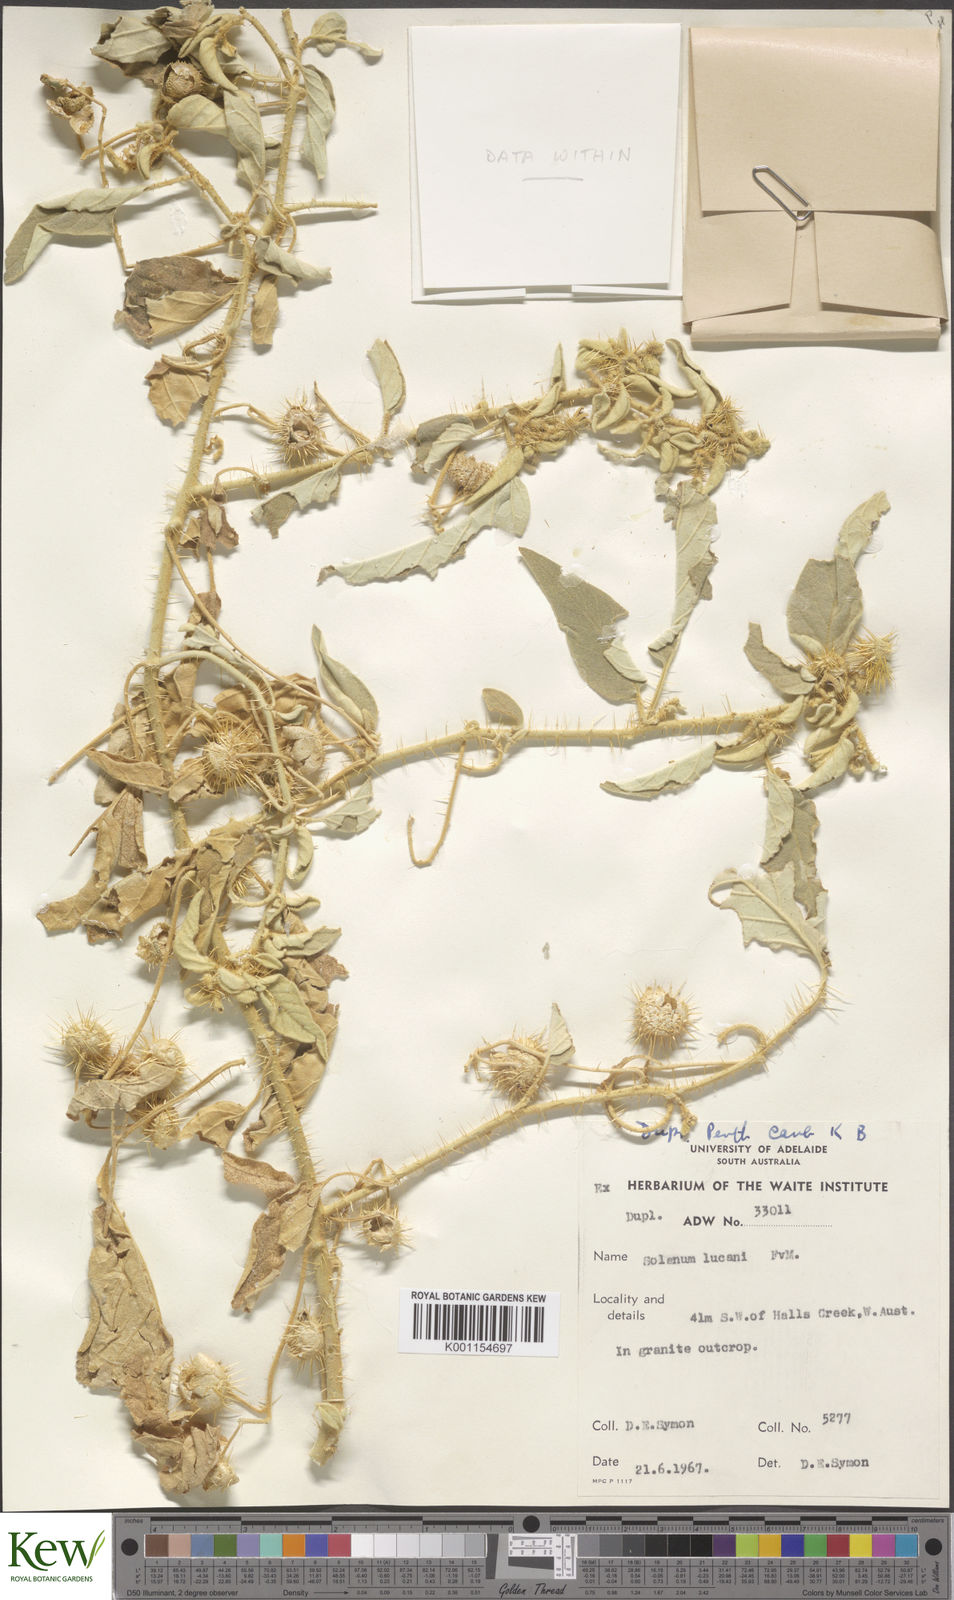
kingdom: Plantae
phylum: Tracheophyta
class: Magnoliopsida
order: Solanales
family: Solanaceae
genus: Solanum
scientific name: Solanum lucani
